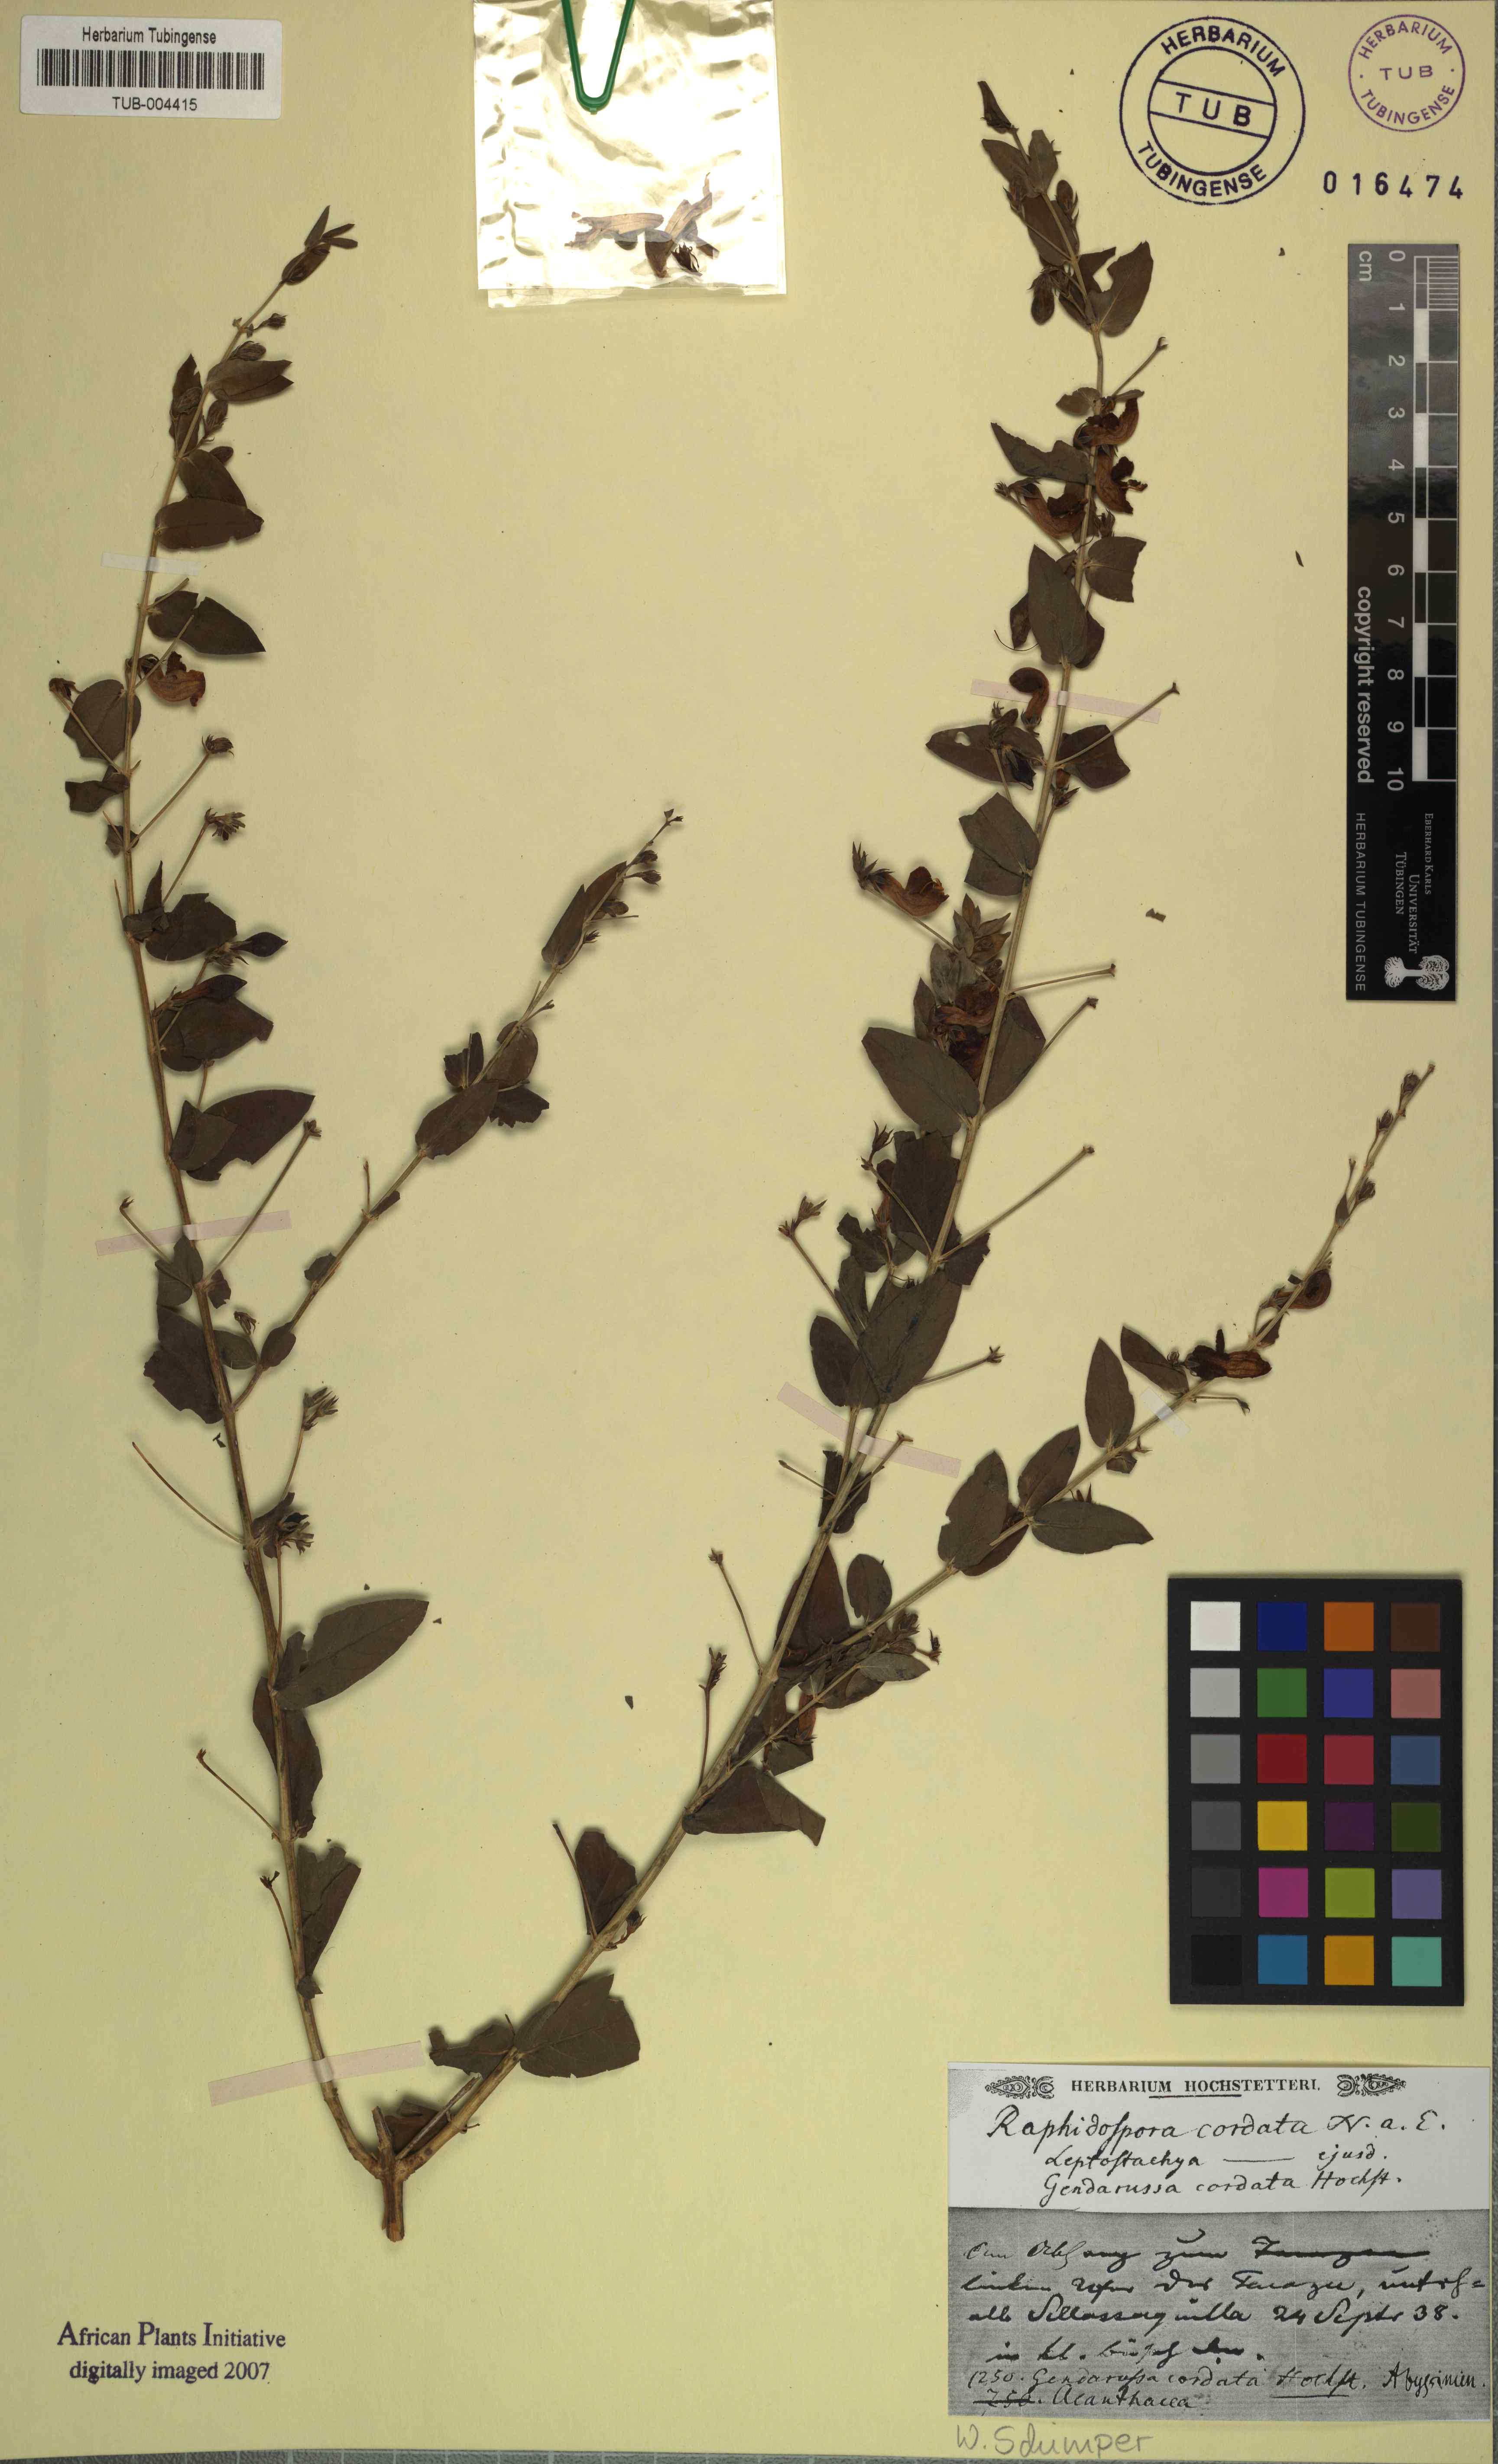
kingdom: Plantae
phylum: Tracheophyta
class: Magnoliopsida
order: Lamiales
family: Acanthaceae
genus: Justicia
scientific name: Justicia cordata
